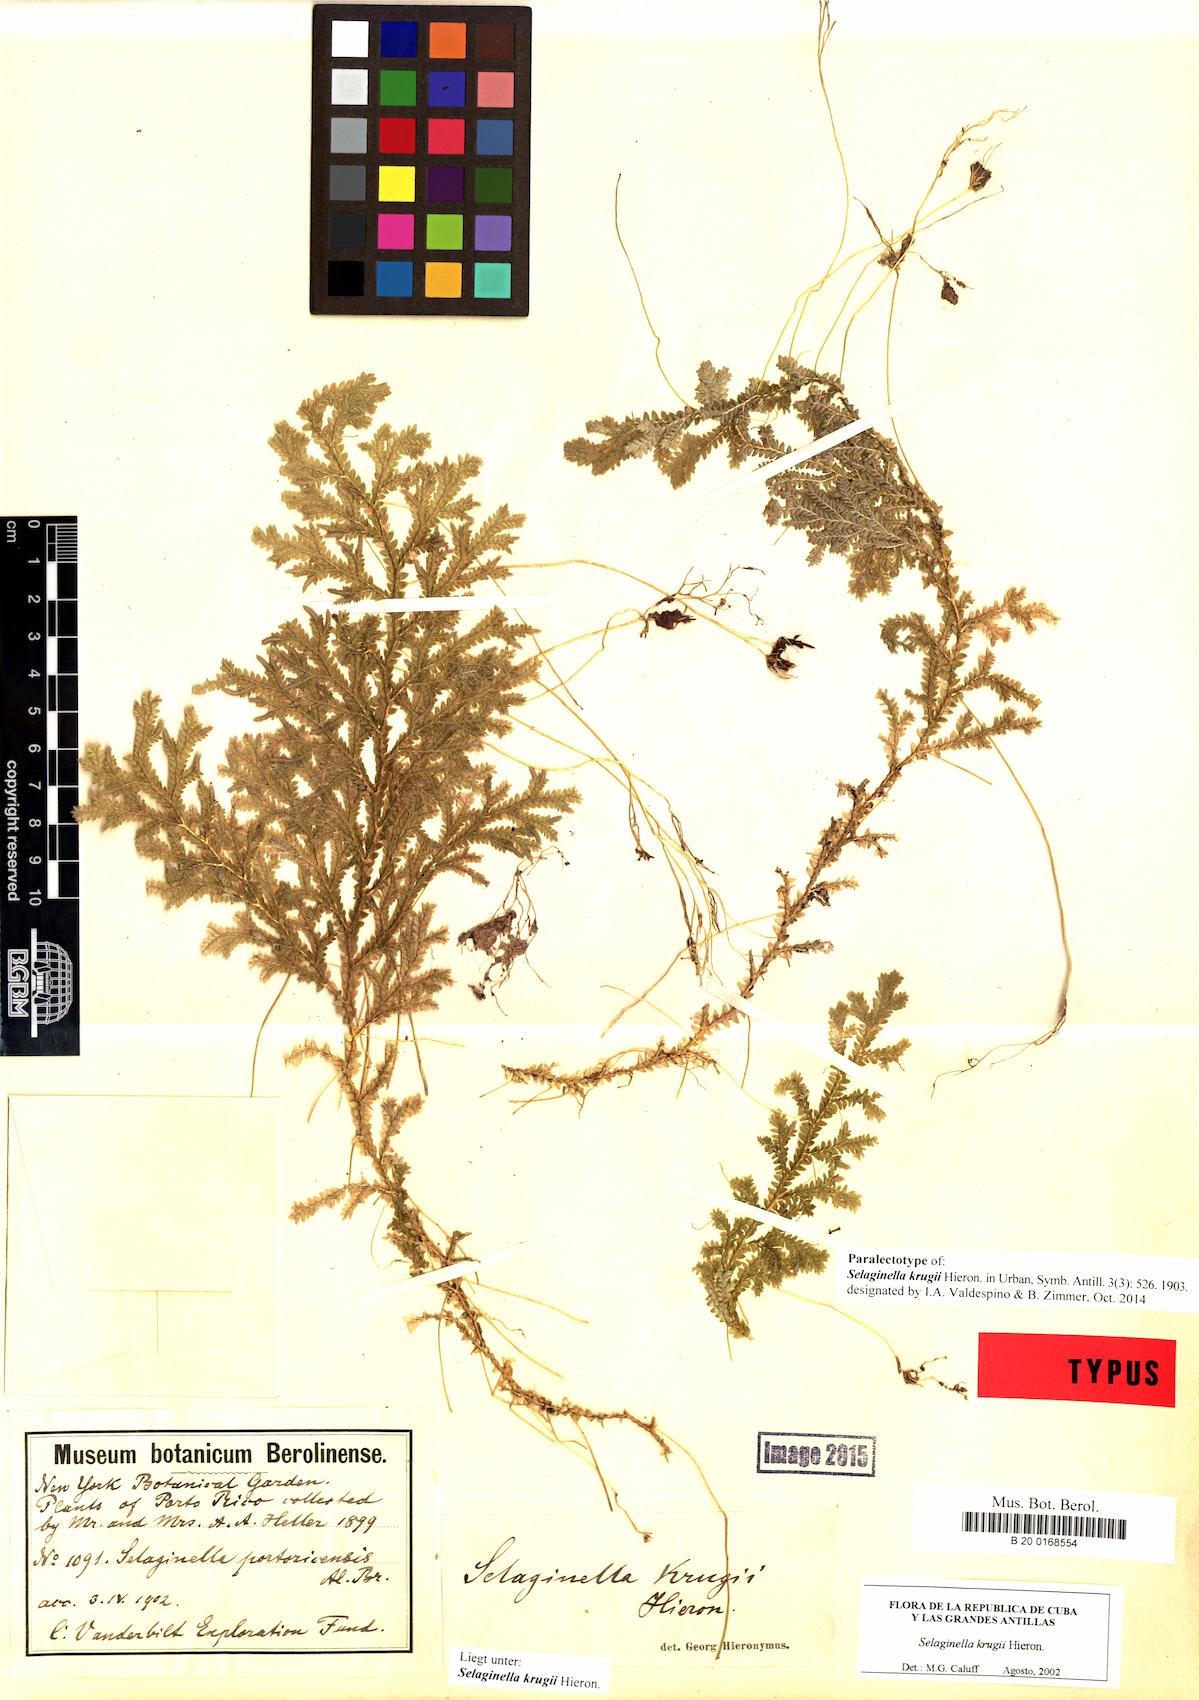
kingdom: Plantae
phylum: Tracheophyta
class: Lycopodiopsida
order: Selaginellales
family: Selaginellaceae
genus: Selaginella
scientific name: Selaginella krugii
